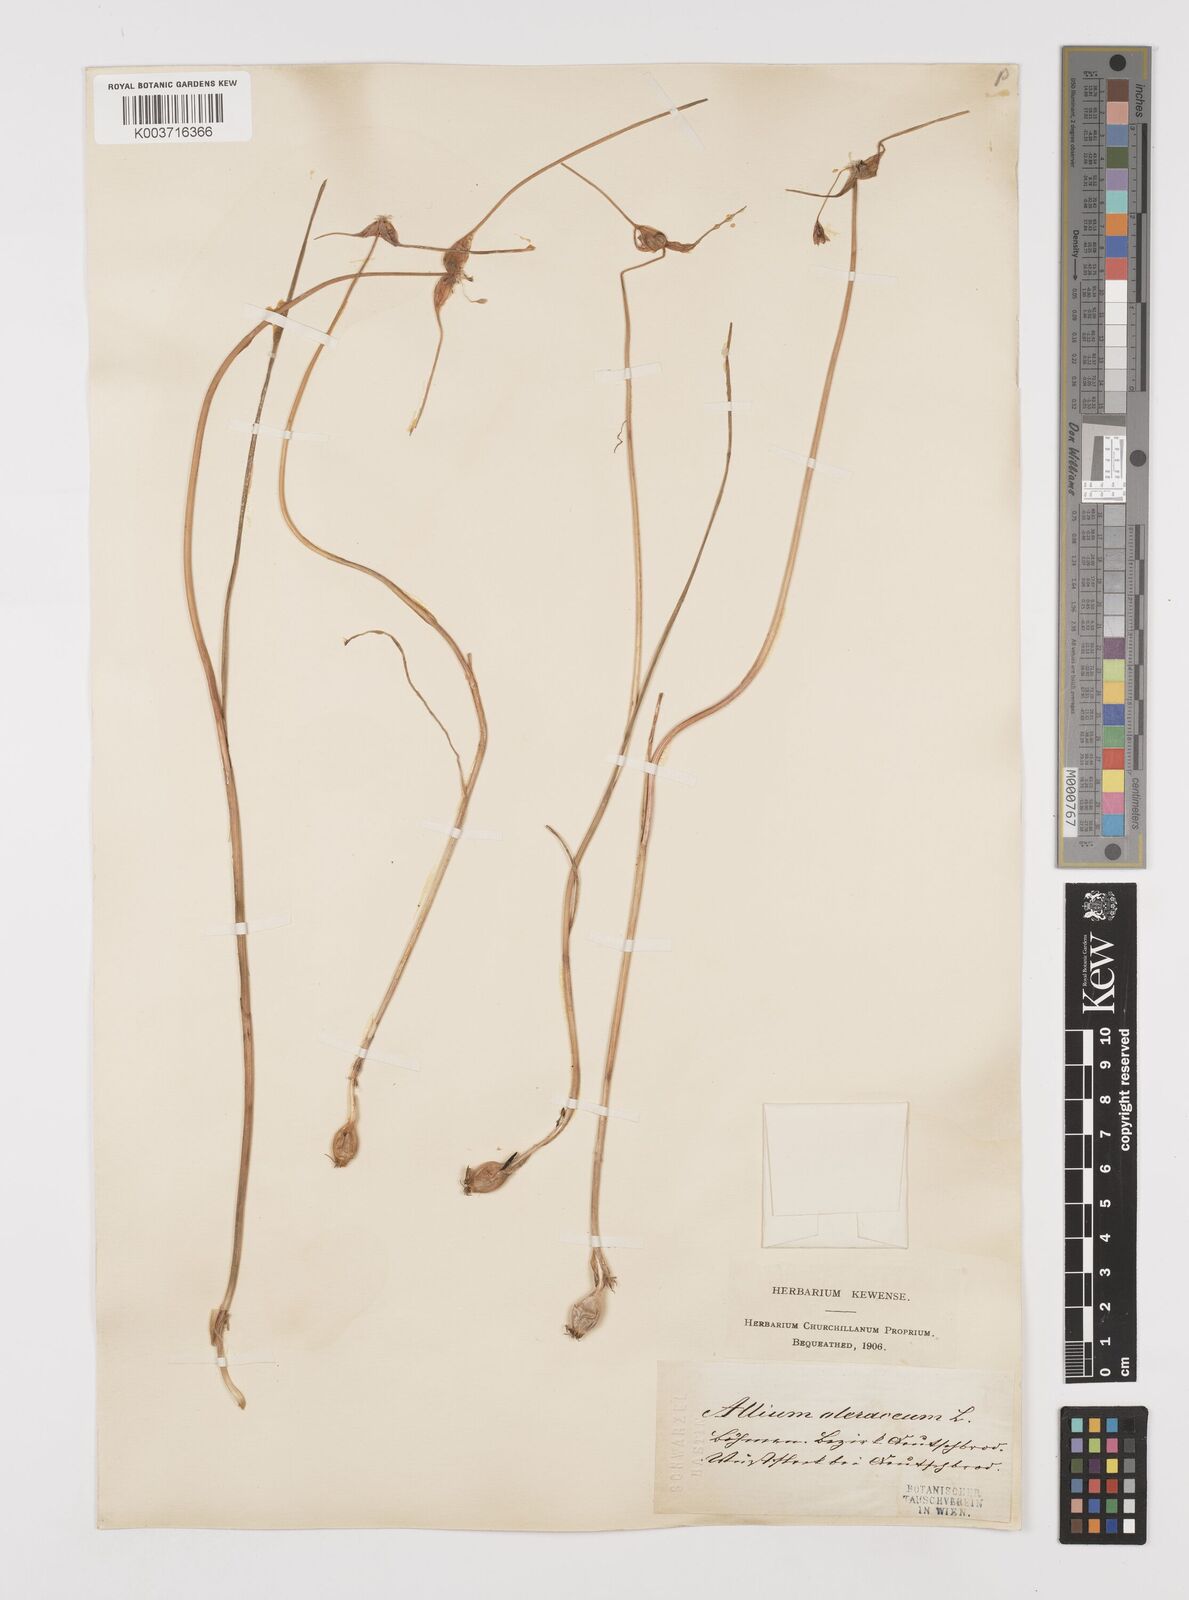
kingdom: Plantae
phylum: Tracheophyta
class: Liliopsida
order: Asparagales
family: Amaryllidaceae
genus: Allium
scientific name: Allium oleraceum
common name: Field garlic
